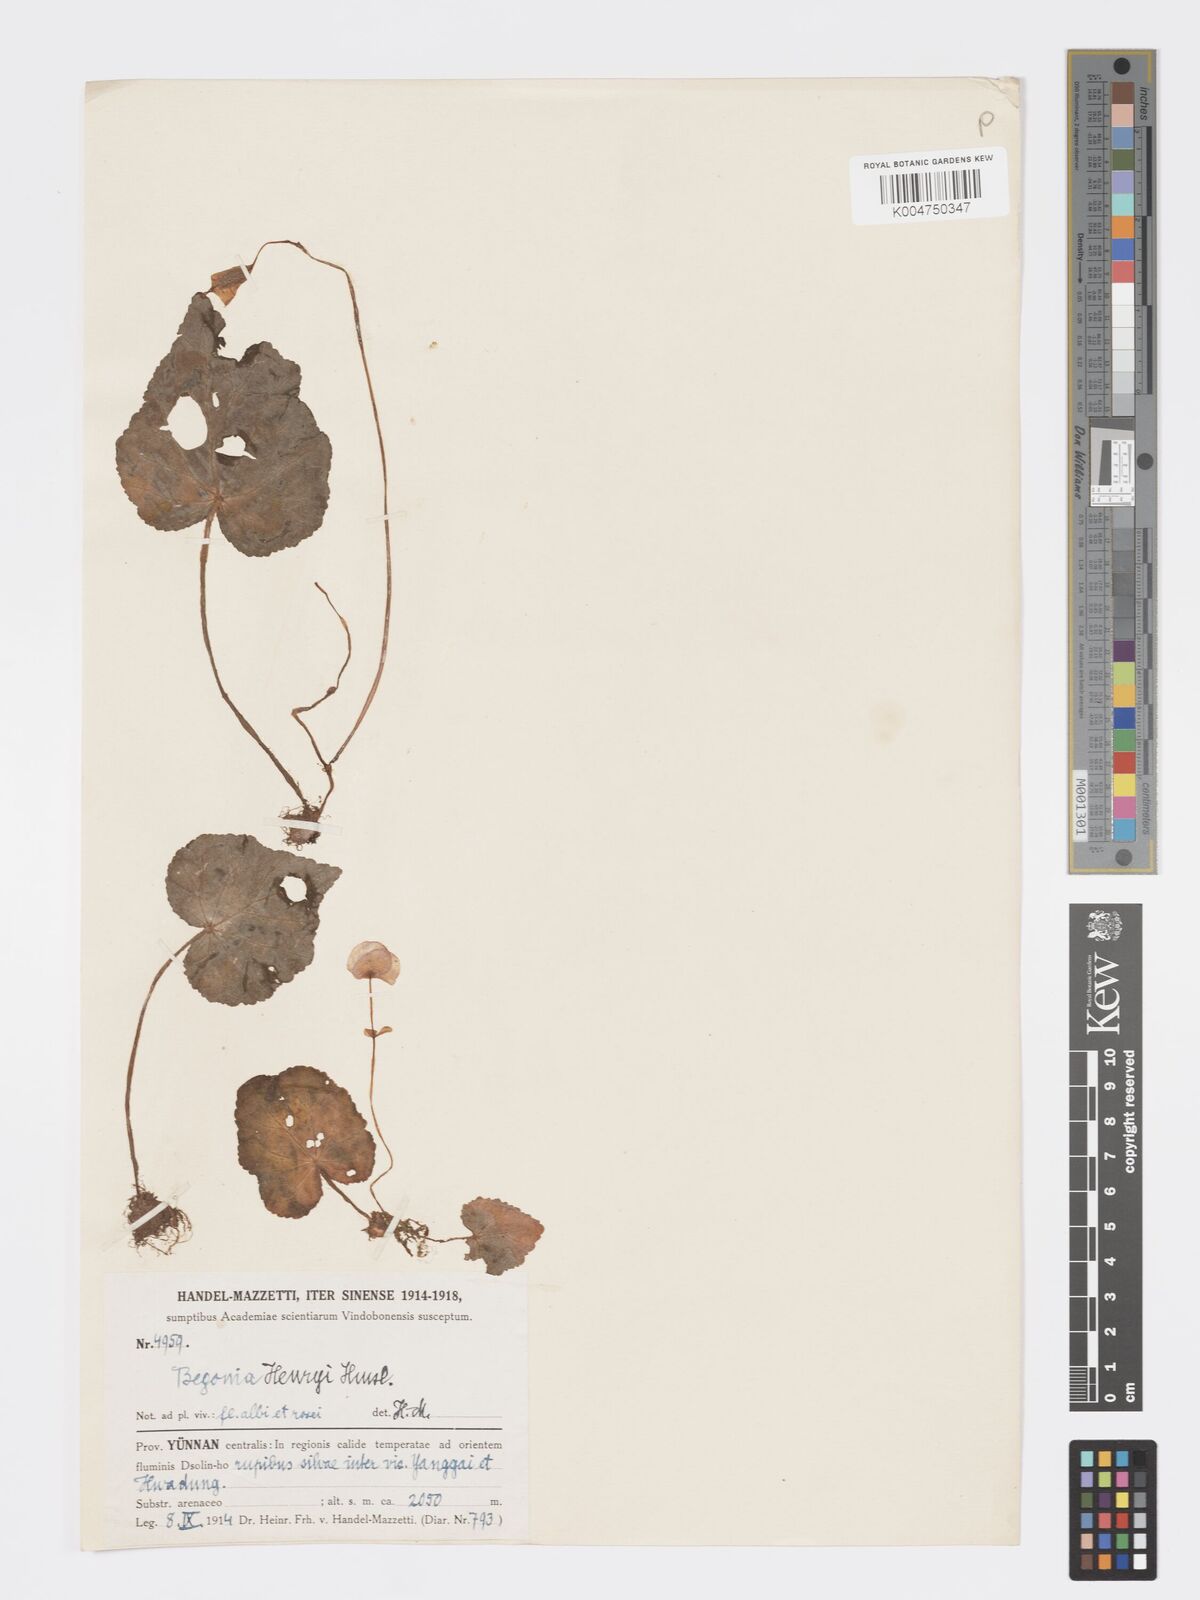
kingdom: Plantae
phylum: Tracheophyta
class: Magnoliopsida
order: Cucurbitales
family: Begoniaceae
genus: Begonia
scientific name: Begonia henryi
